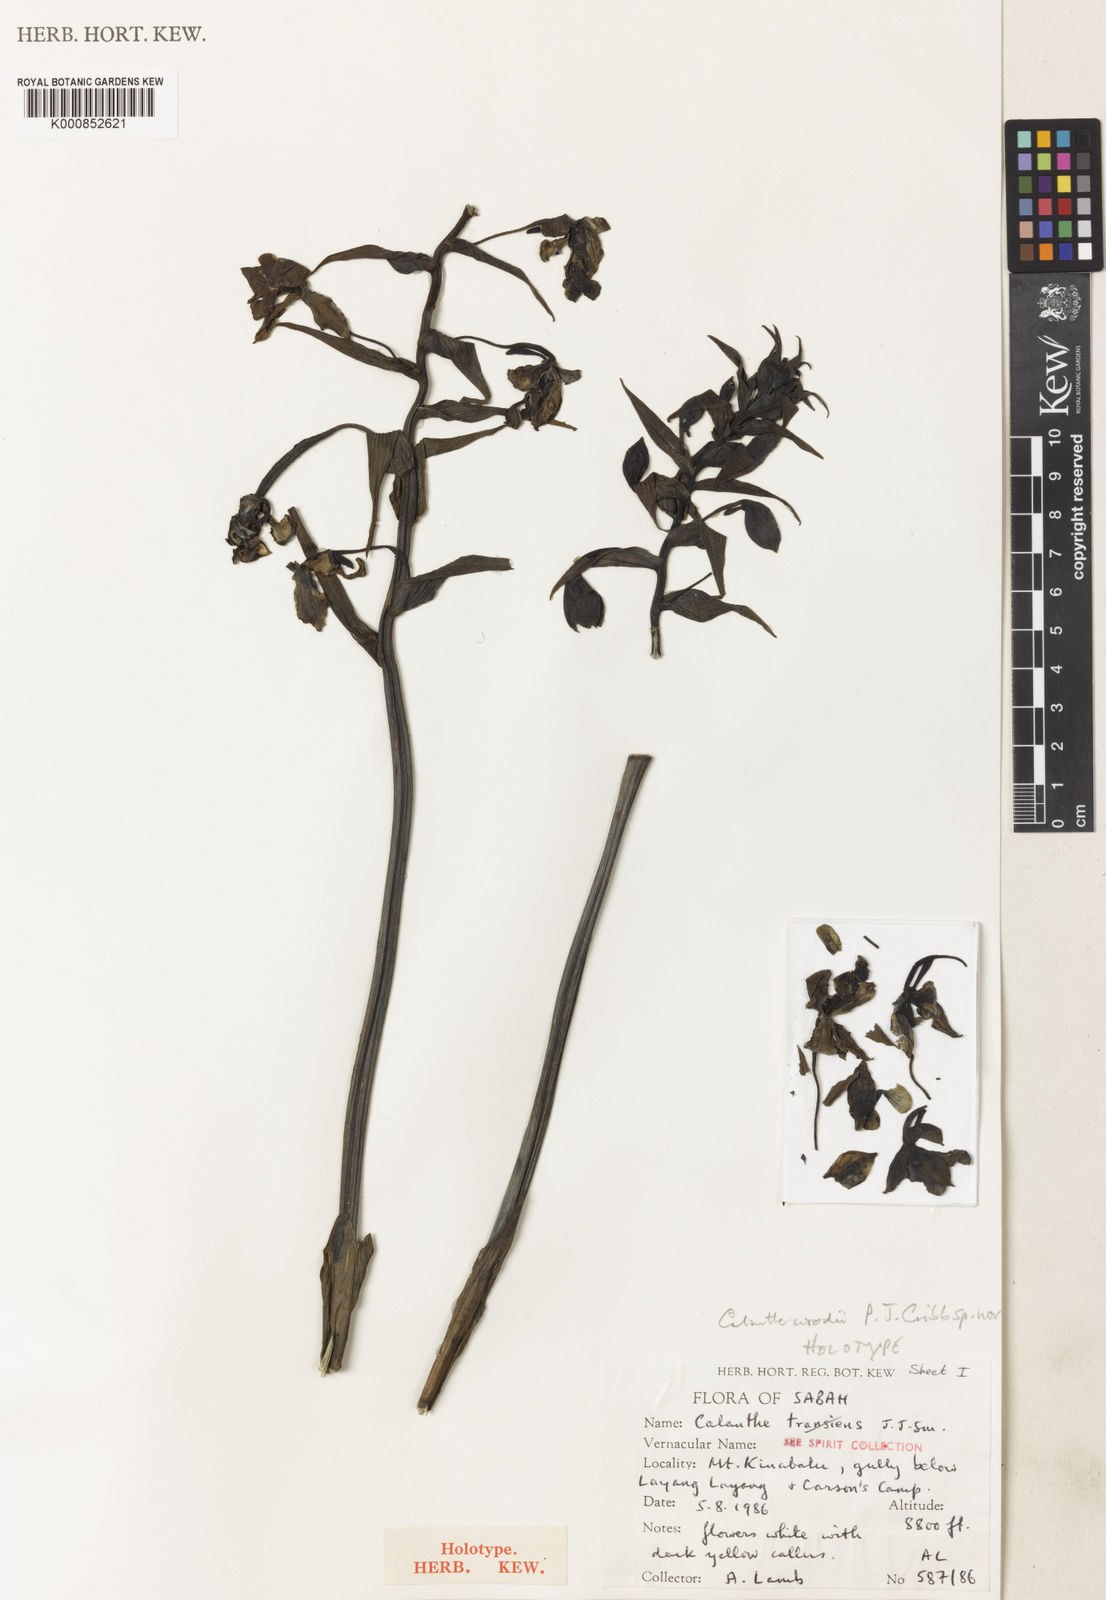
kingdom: Plantae
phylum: Tracheophyta
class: Liliopsida
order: Asparagales
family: Orchidaceae
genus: Calanthe
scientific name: Calanthe woodii
